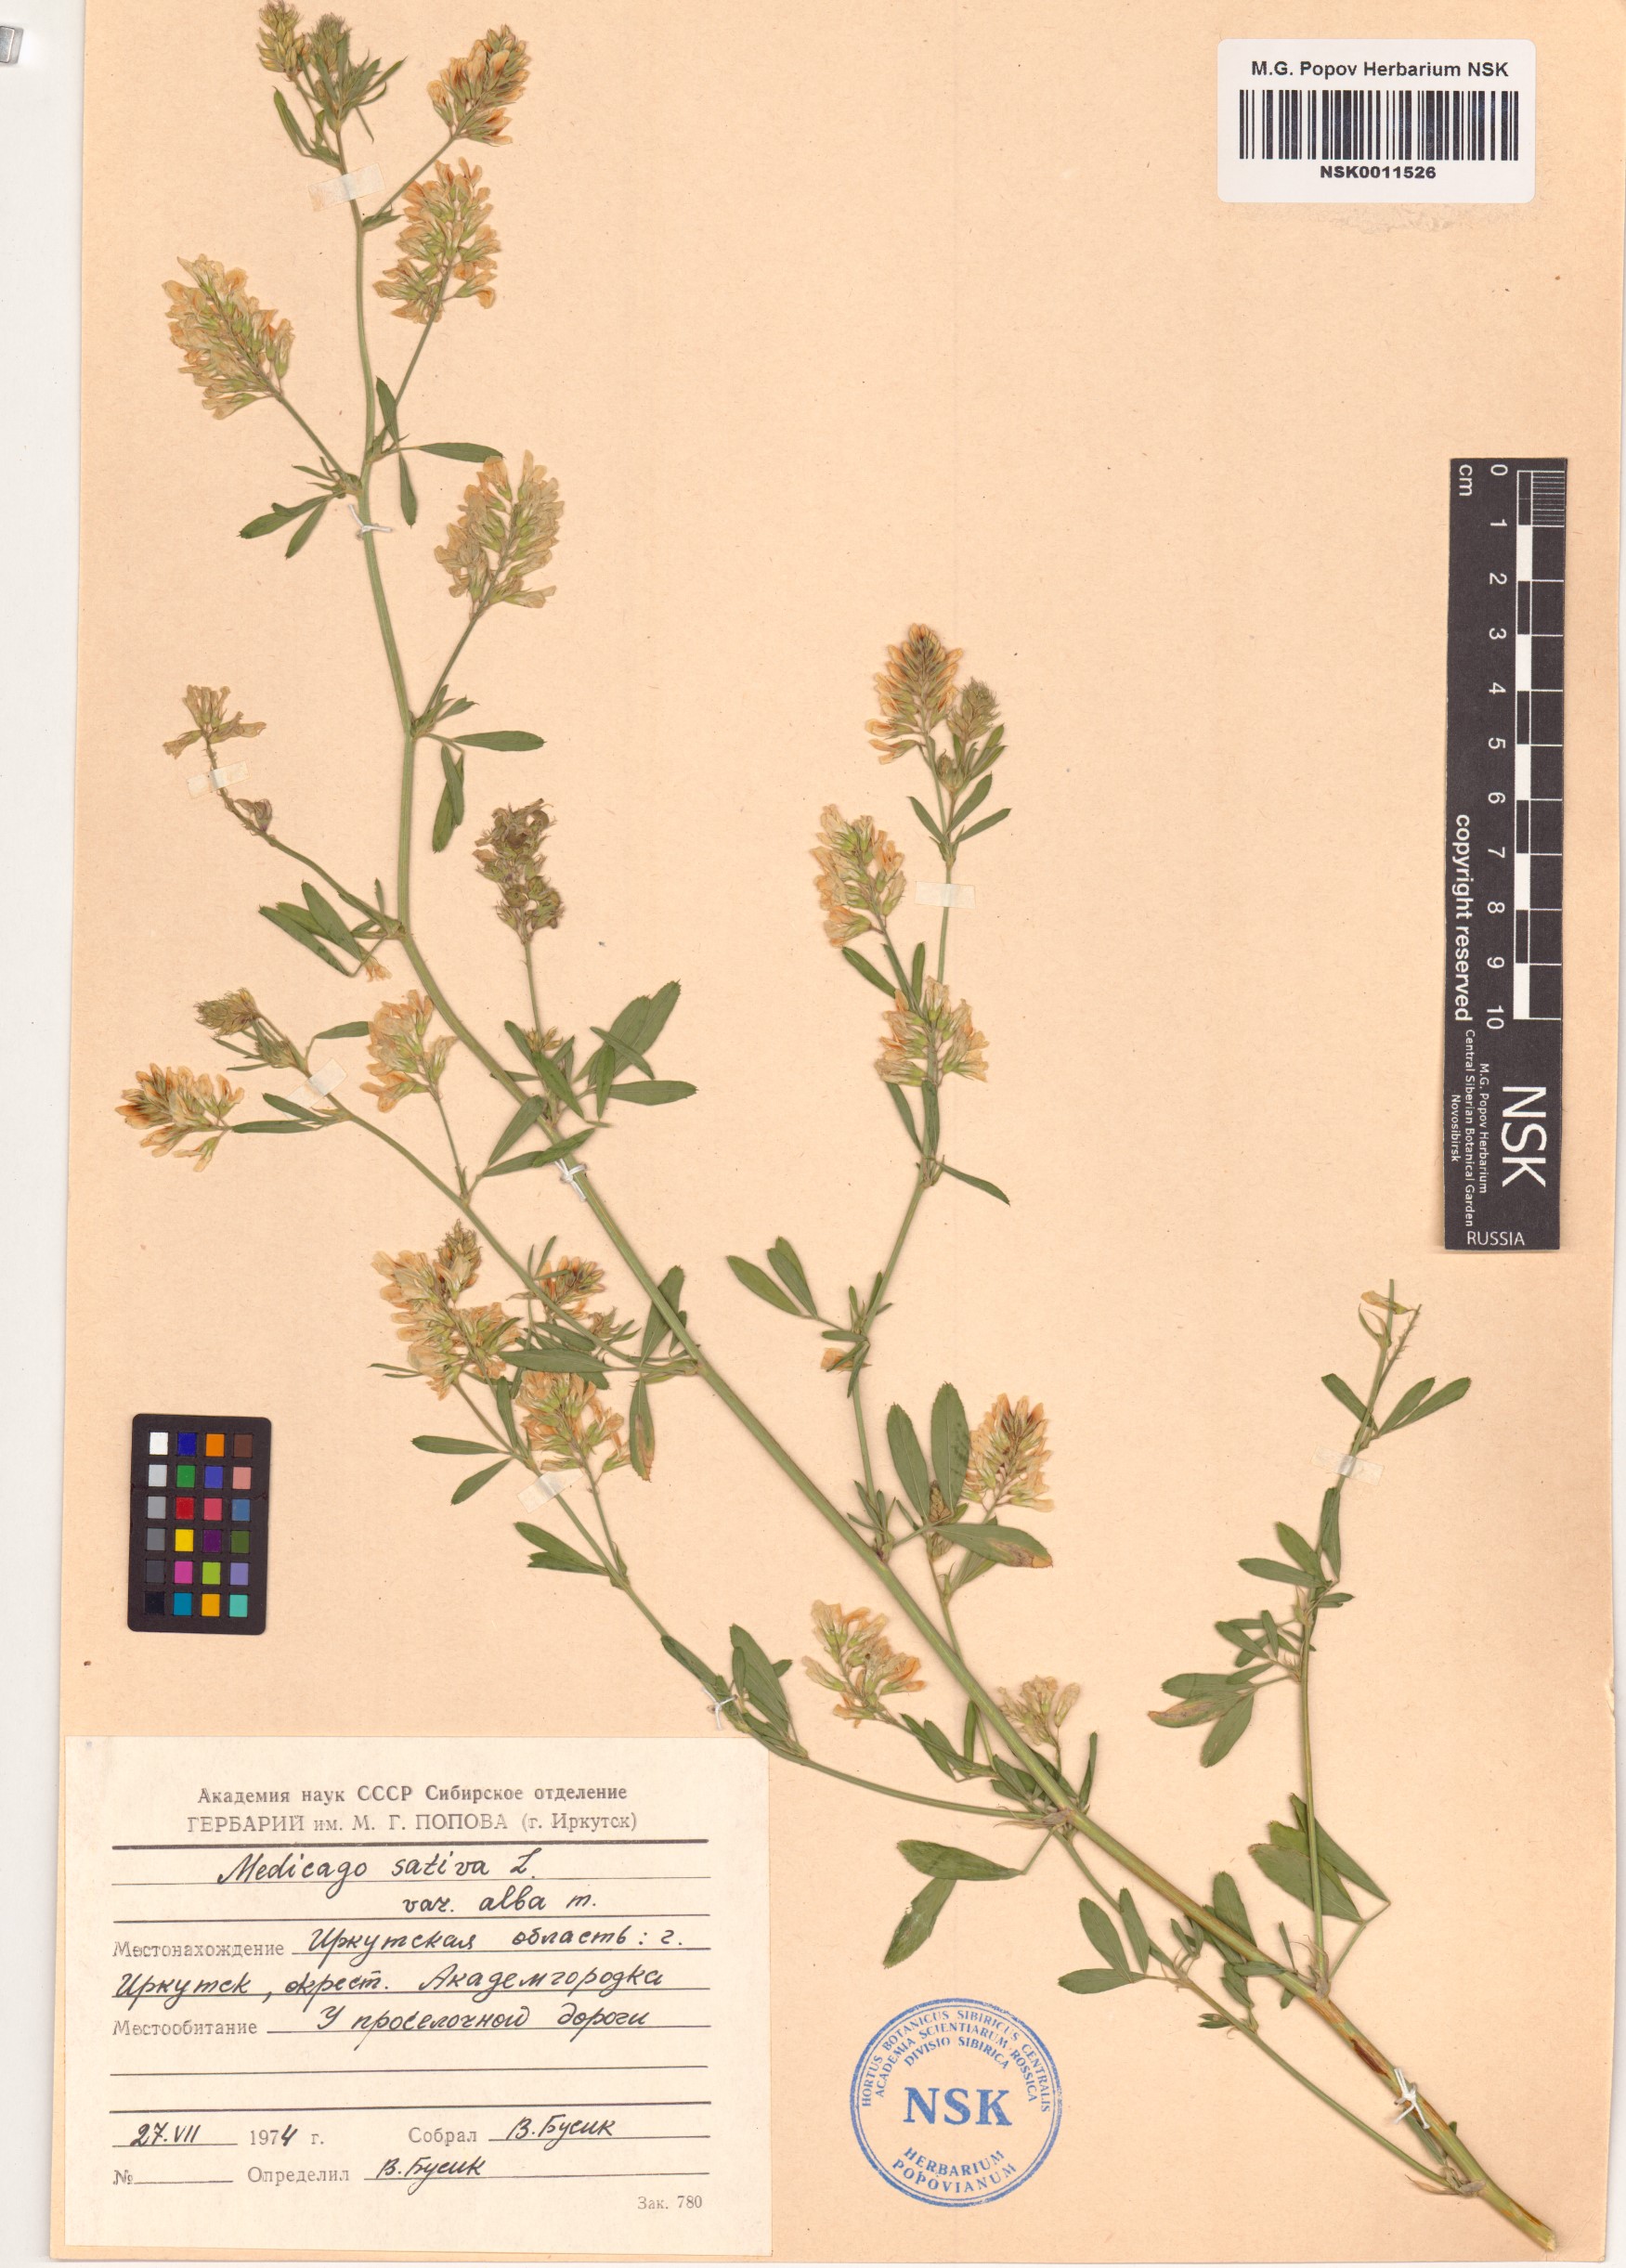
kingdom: Plantae
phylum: Tracheophyta
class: Magnoliopsida
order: Fabales
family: Fabaceae
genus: Medicago
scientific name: Medicago sativa
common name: Alfalfa
